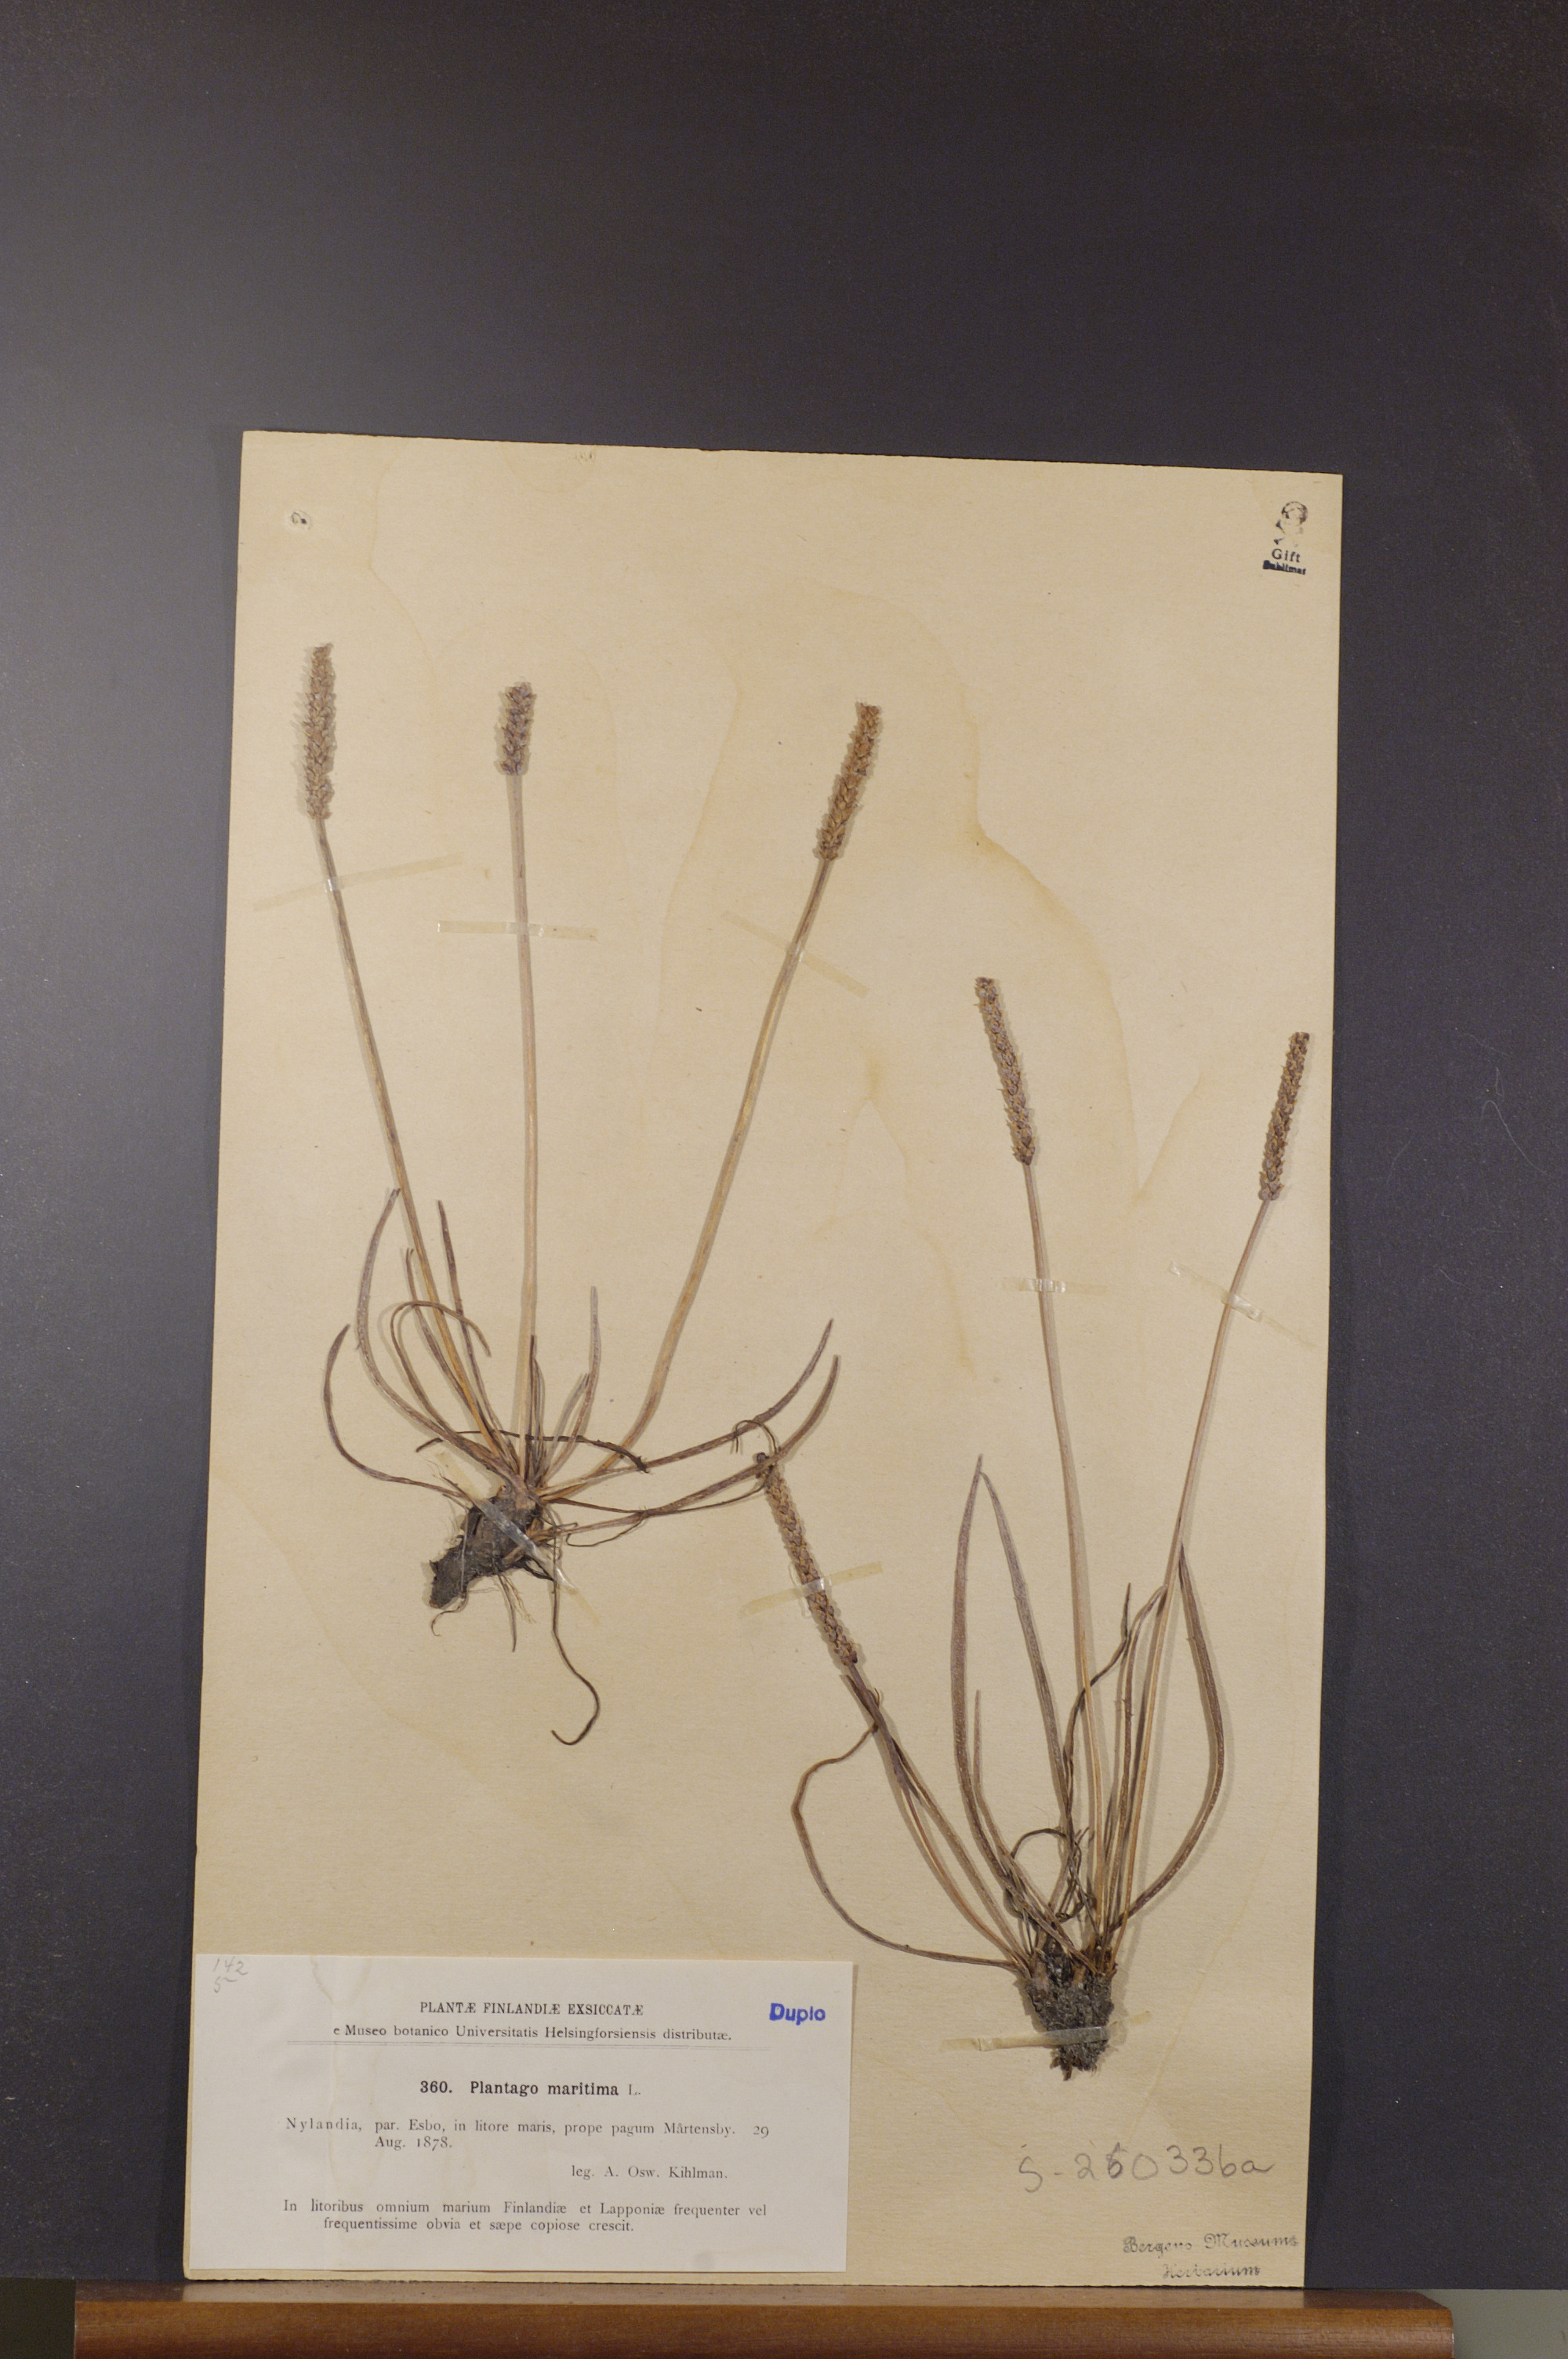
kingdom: Plantae
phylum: Tracheophyta
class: Magnoliopsida
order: Lamiales
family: Plantaginaceae
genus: Plantago
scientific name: Plantago maritima
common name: Sea plantain
